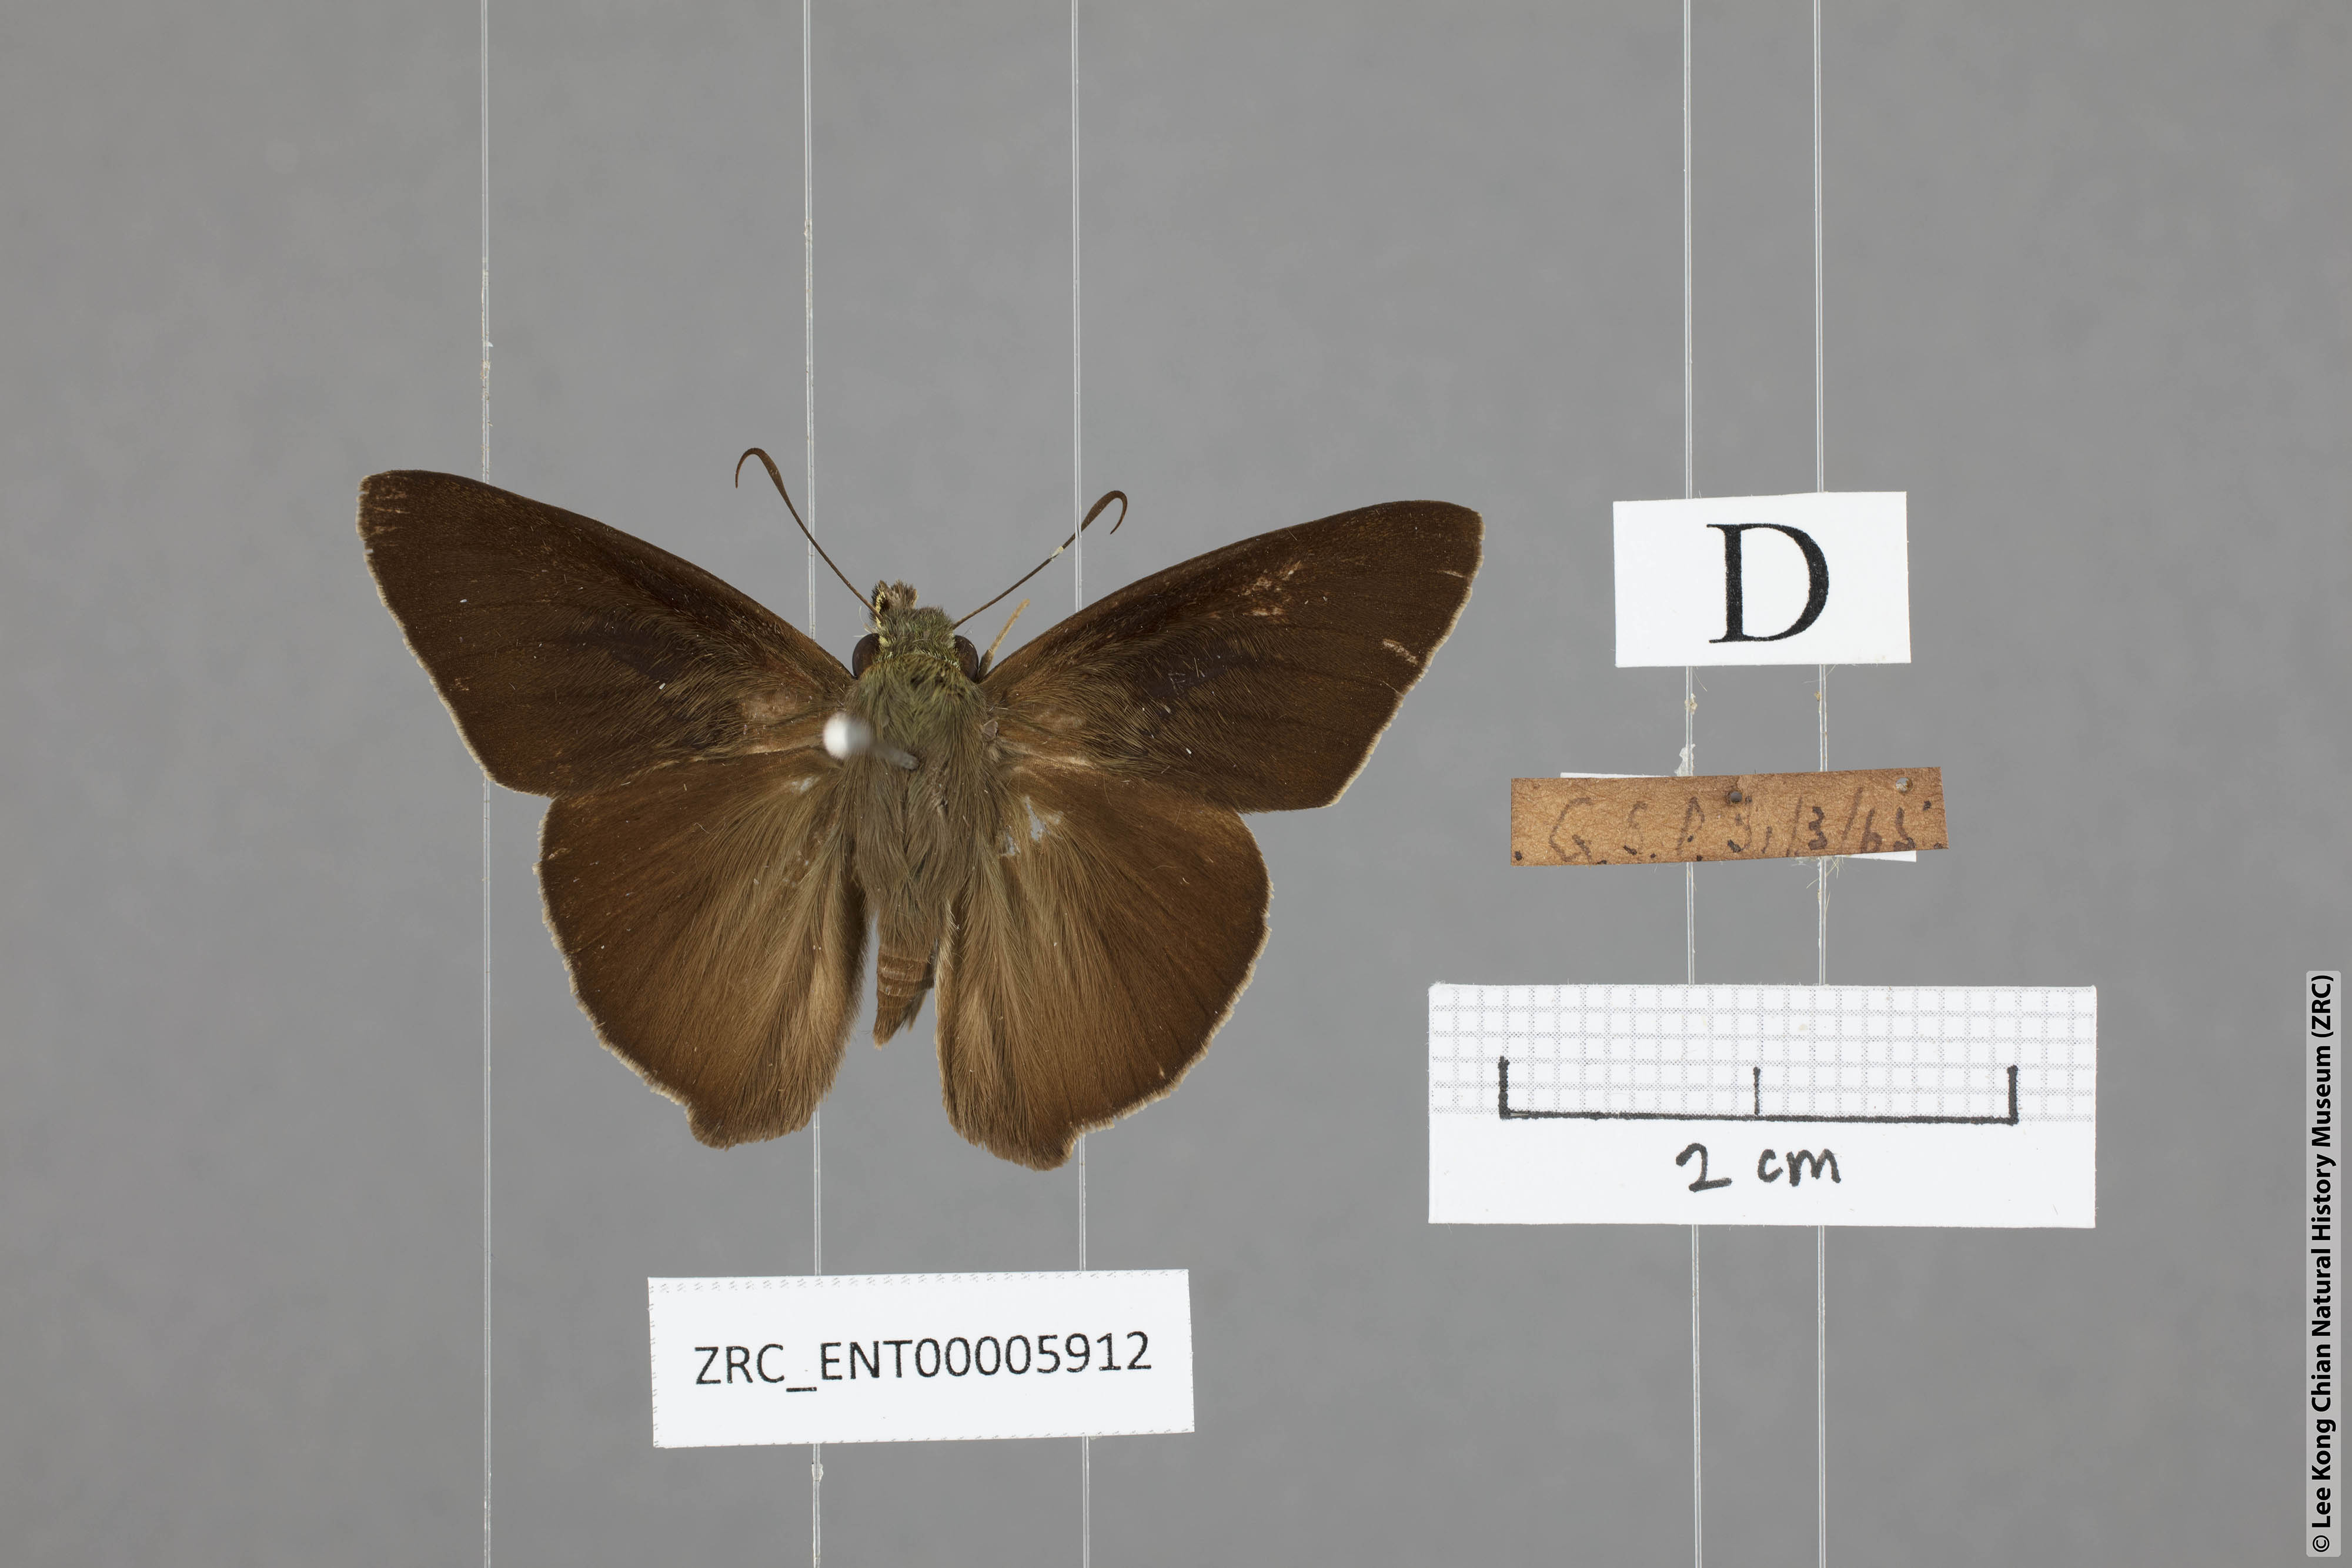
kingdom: Animalia
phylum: Arthropoda
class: Insecta
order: Lepidoptera
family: Hesperiidae
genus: Hasora
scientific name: Hasora taminatus
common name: White banded awl
